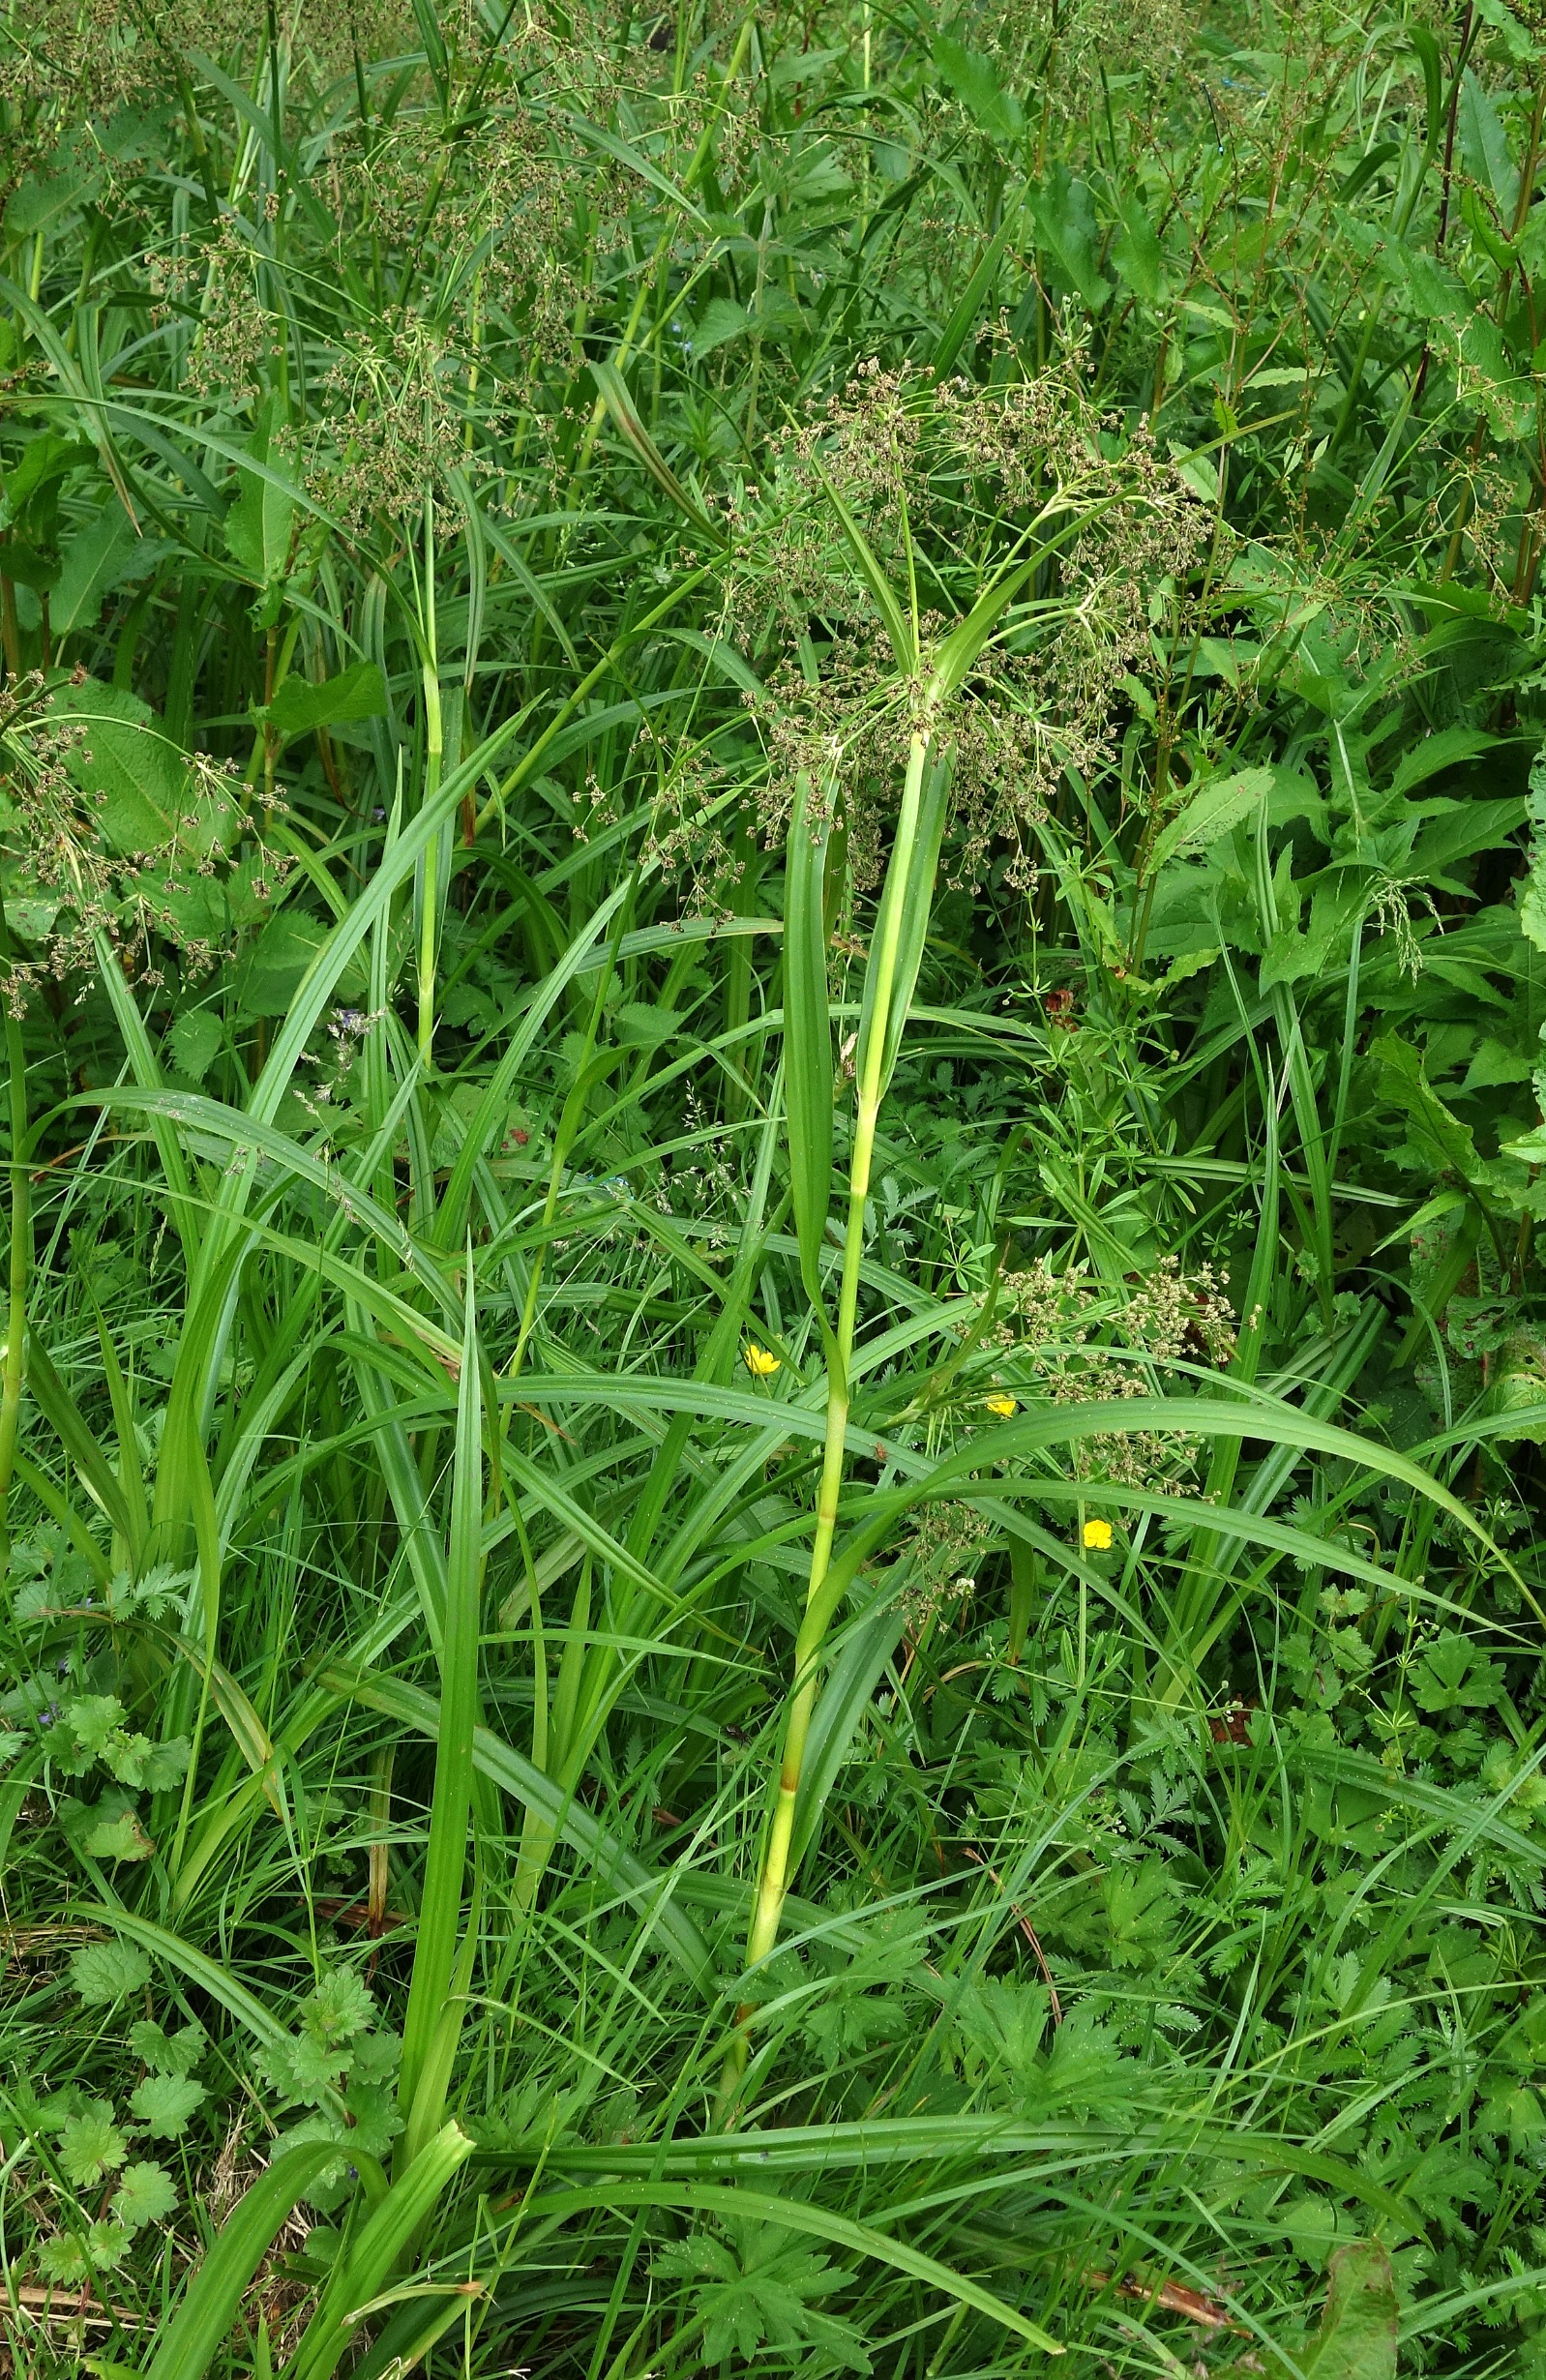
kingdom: Plantae
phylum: Tracheophyta
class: Liliopsida
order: Poales
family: Cyperaceae
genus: Scirpus
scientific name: Scirpus sylvaticus
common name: Skov-kogleaks
